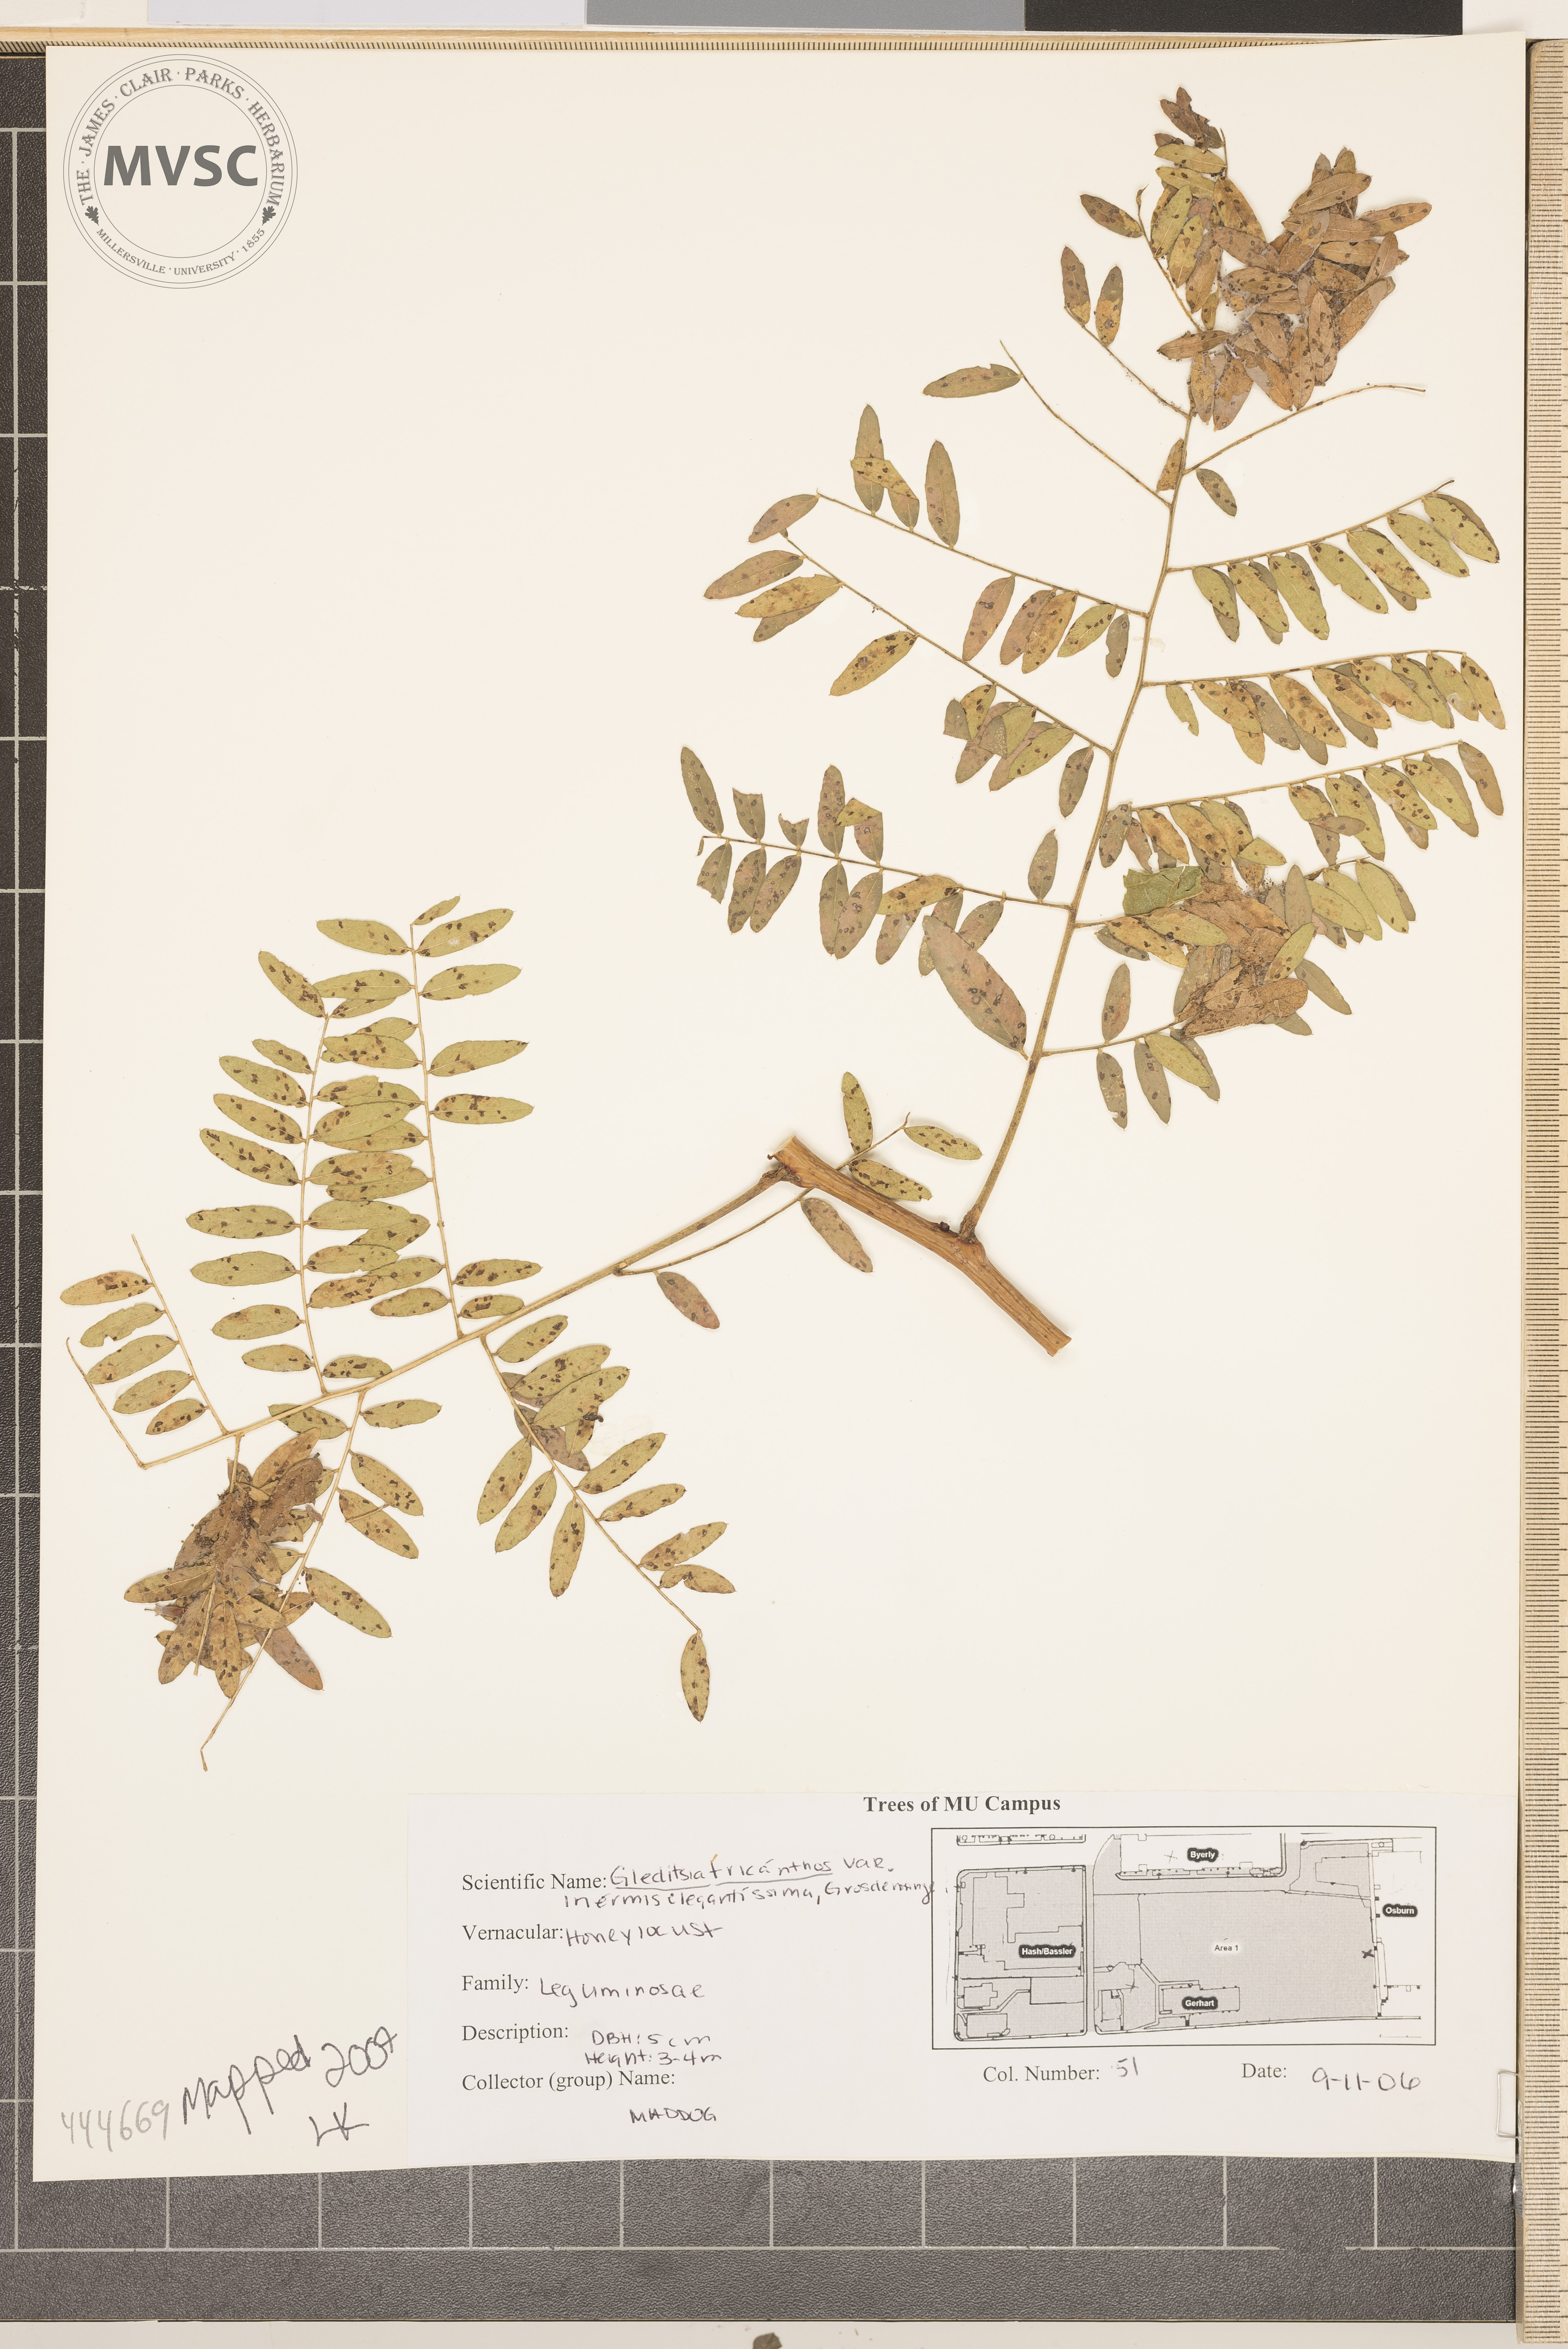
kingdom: Plantae
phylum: Tracheophyta
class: Magnoliopsida
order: Fabales
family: Fabaceae
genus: Gleditsia
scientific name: Gleditsia triacanthos
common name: Common honeylocust
